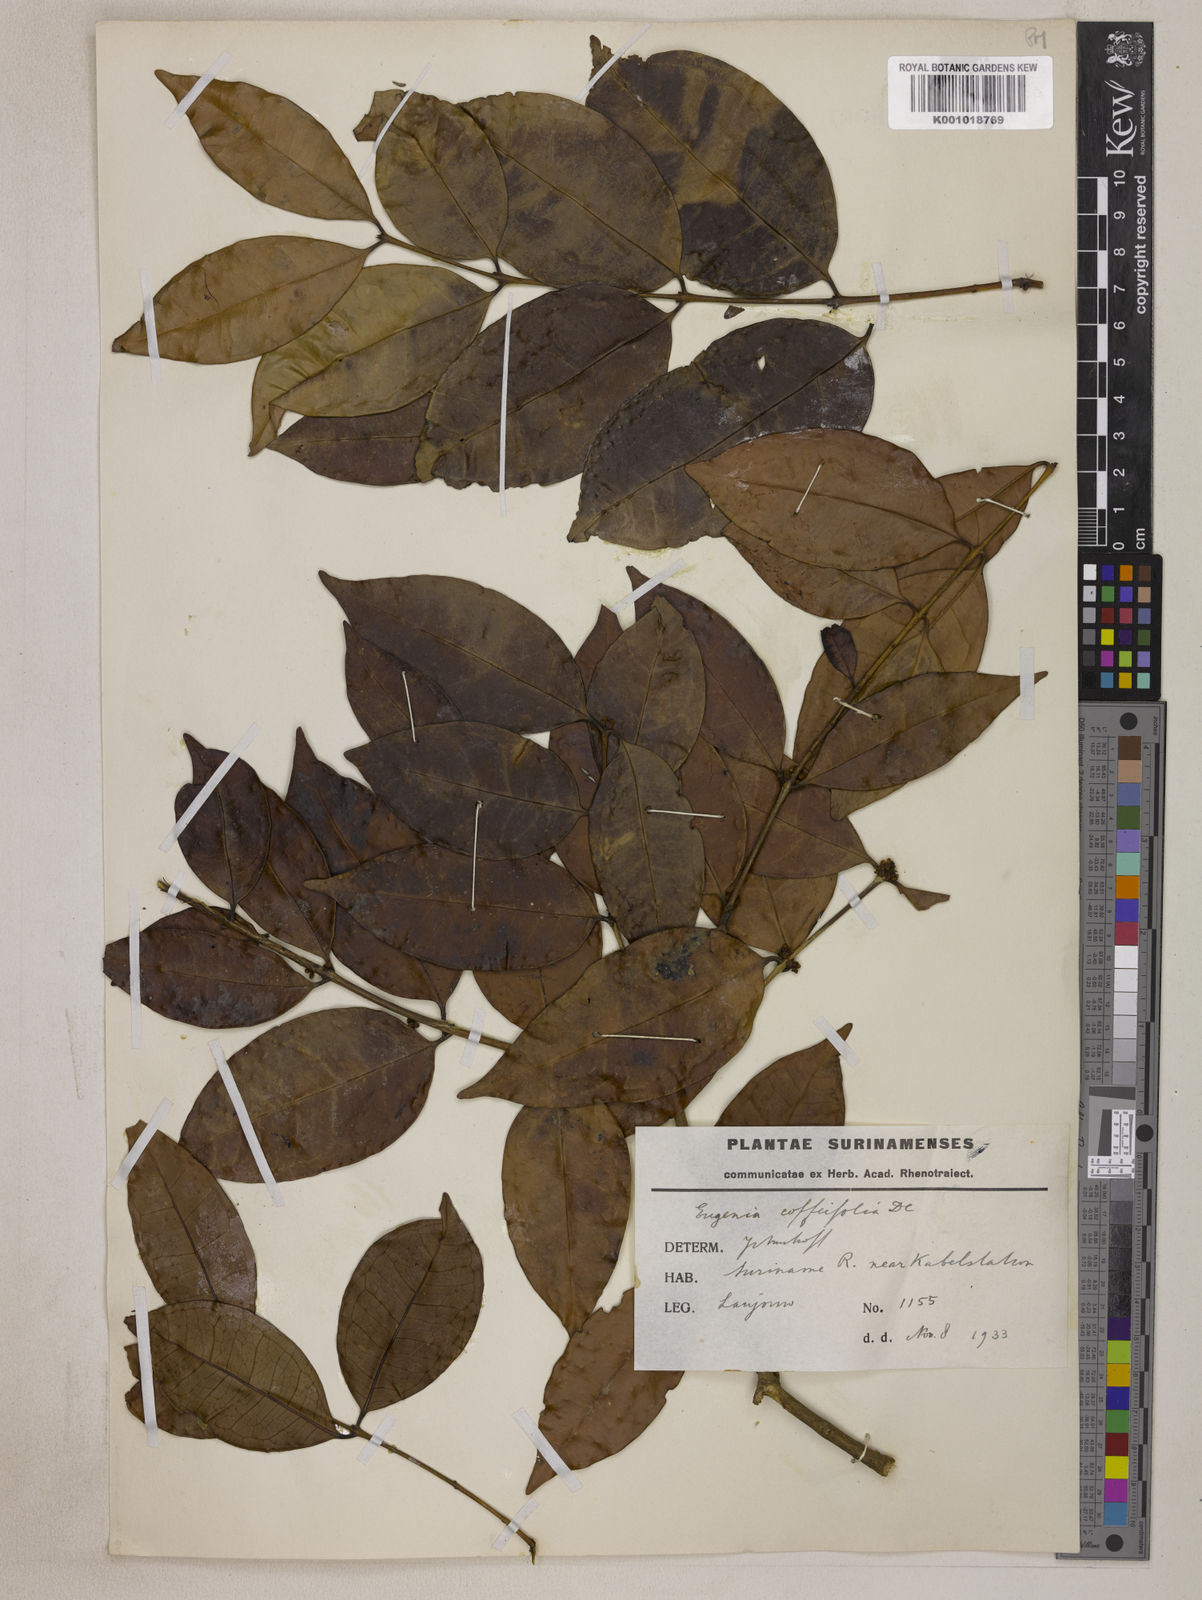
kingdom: Plantae
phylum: Tracheophyta
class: Magnoliopsida
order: Myrtales
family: Myrtaceae
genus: Eugenia
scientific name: Eugenia coffeifolia
